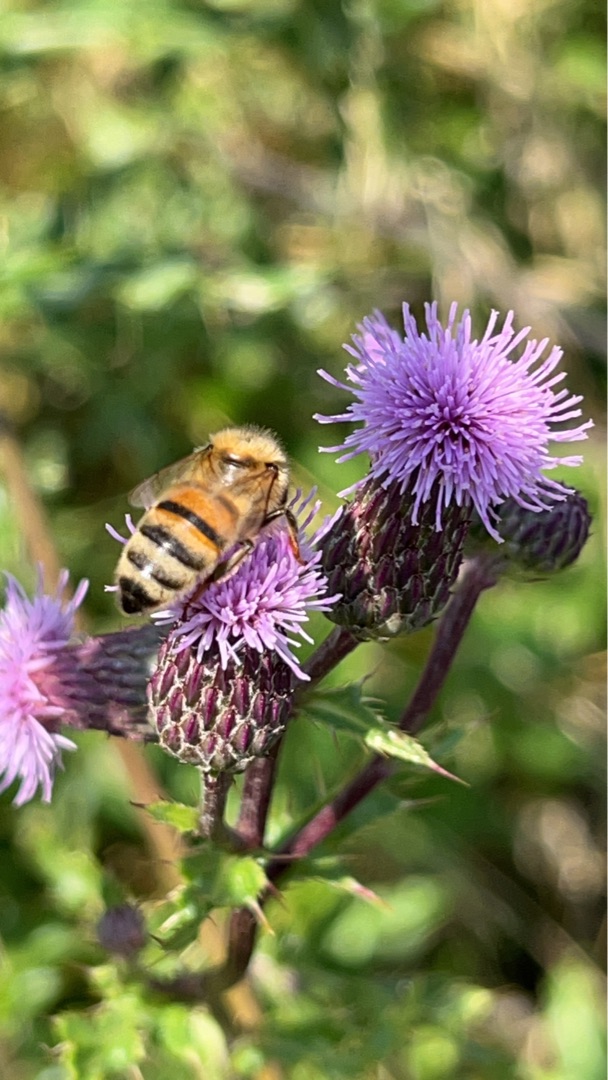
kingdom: Animalia
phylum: Arthropoda
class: Insecta
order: Hymenoptera
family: Apidae
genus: Apis
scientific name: Apis mellifera
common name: Honningbi
